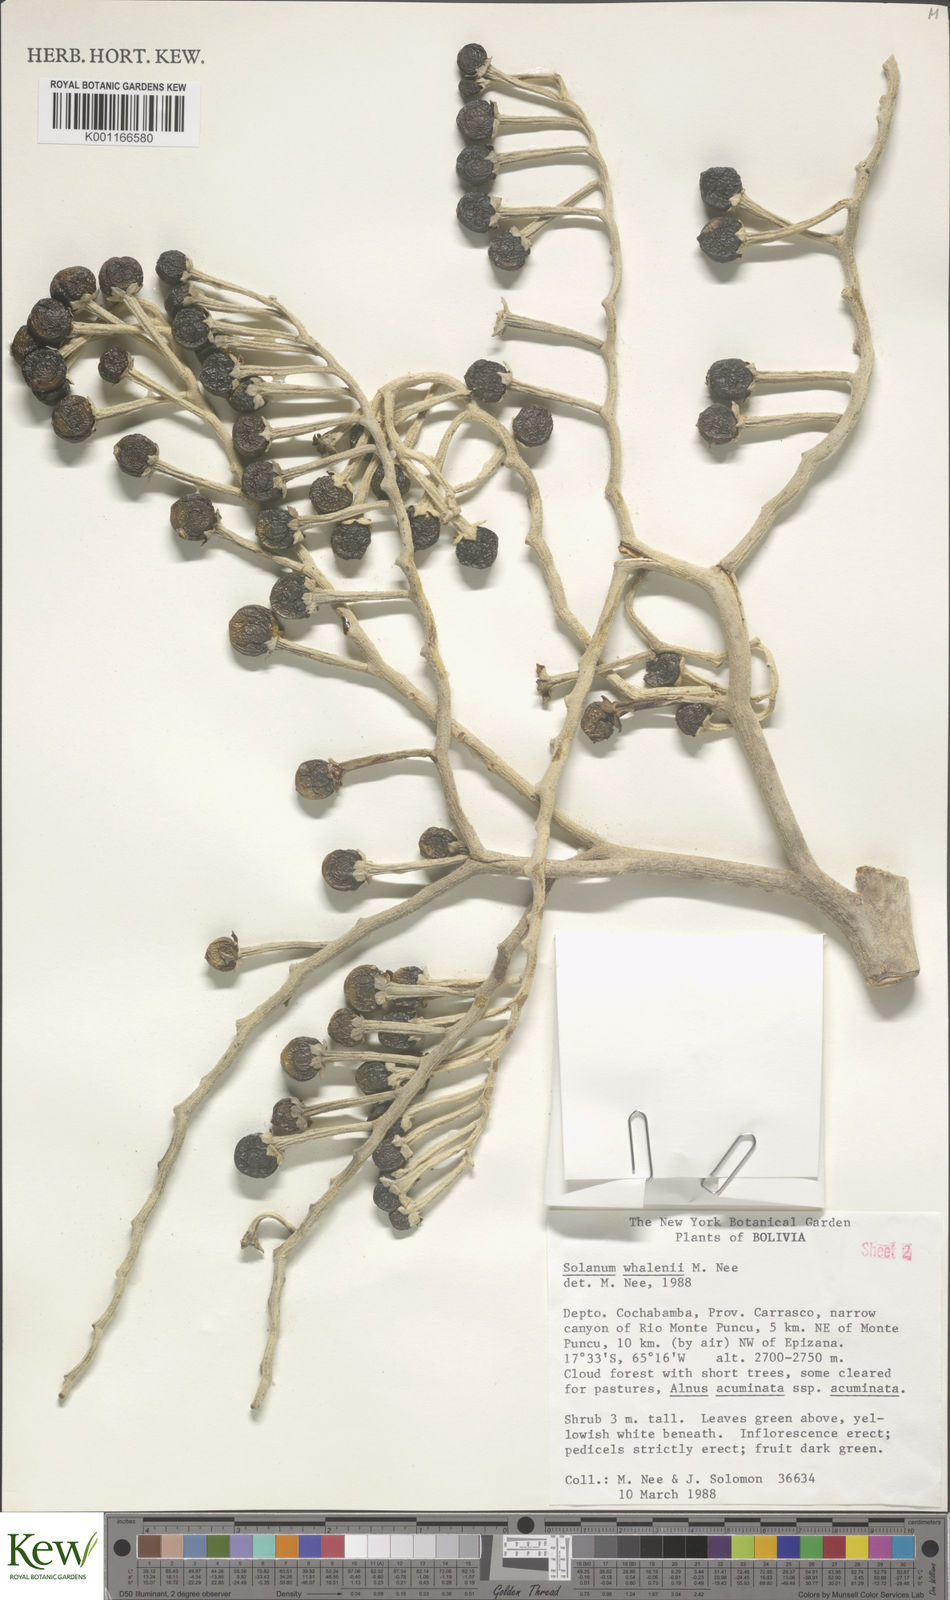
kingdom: Plantae
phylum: Tracheophyta
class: Magnoliopsida
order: Solanales
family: Solanaceae
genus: Solanum
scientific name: Solanum whalenii
